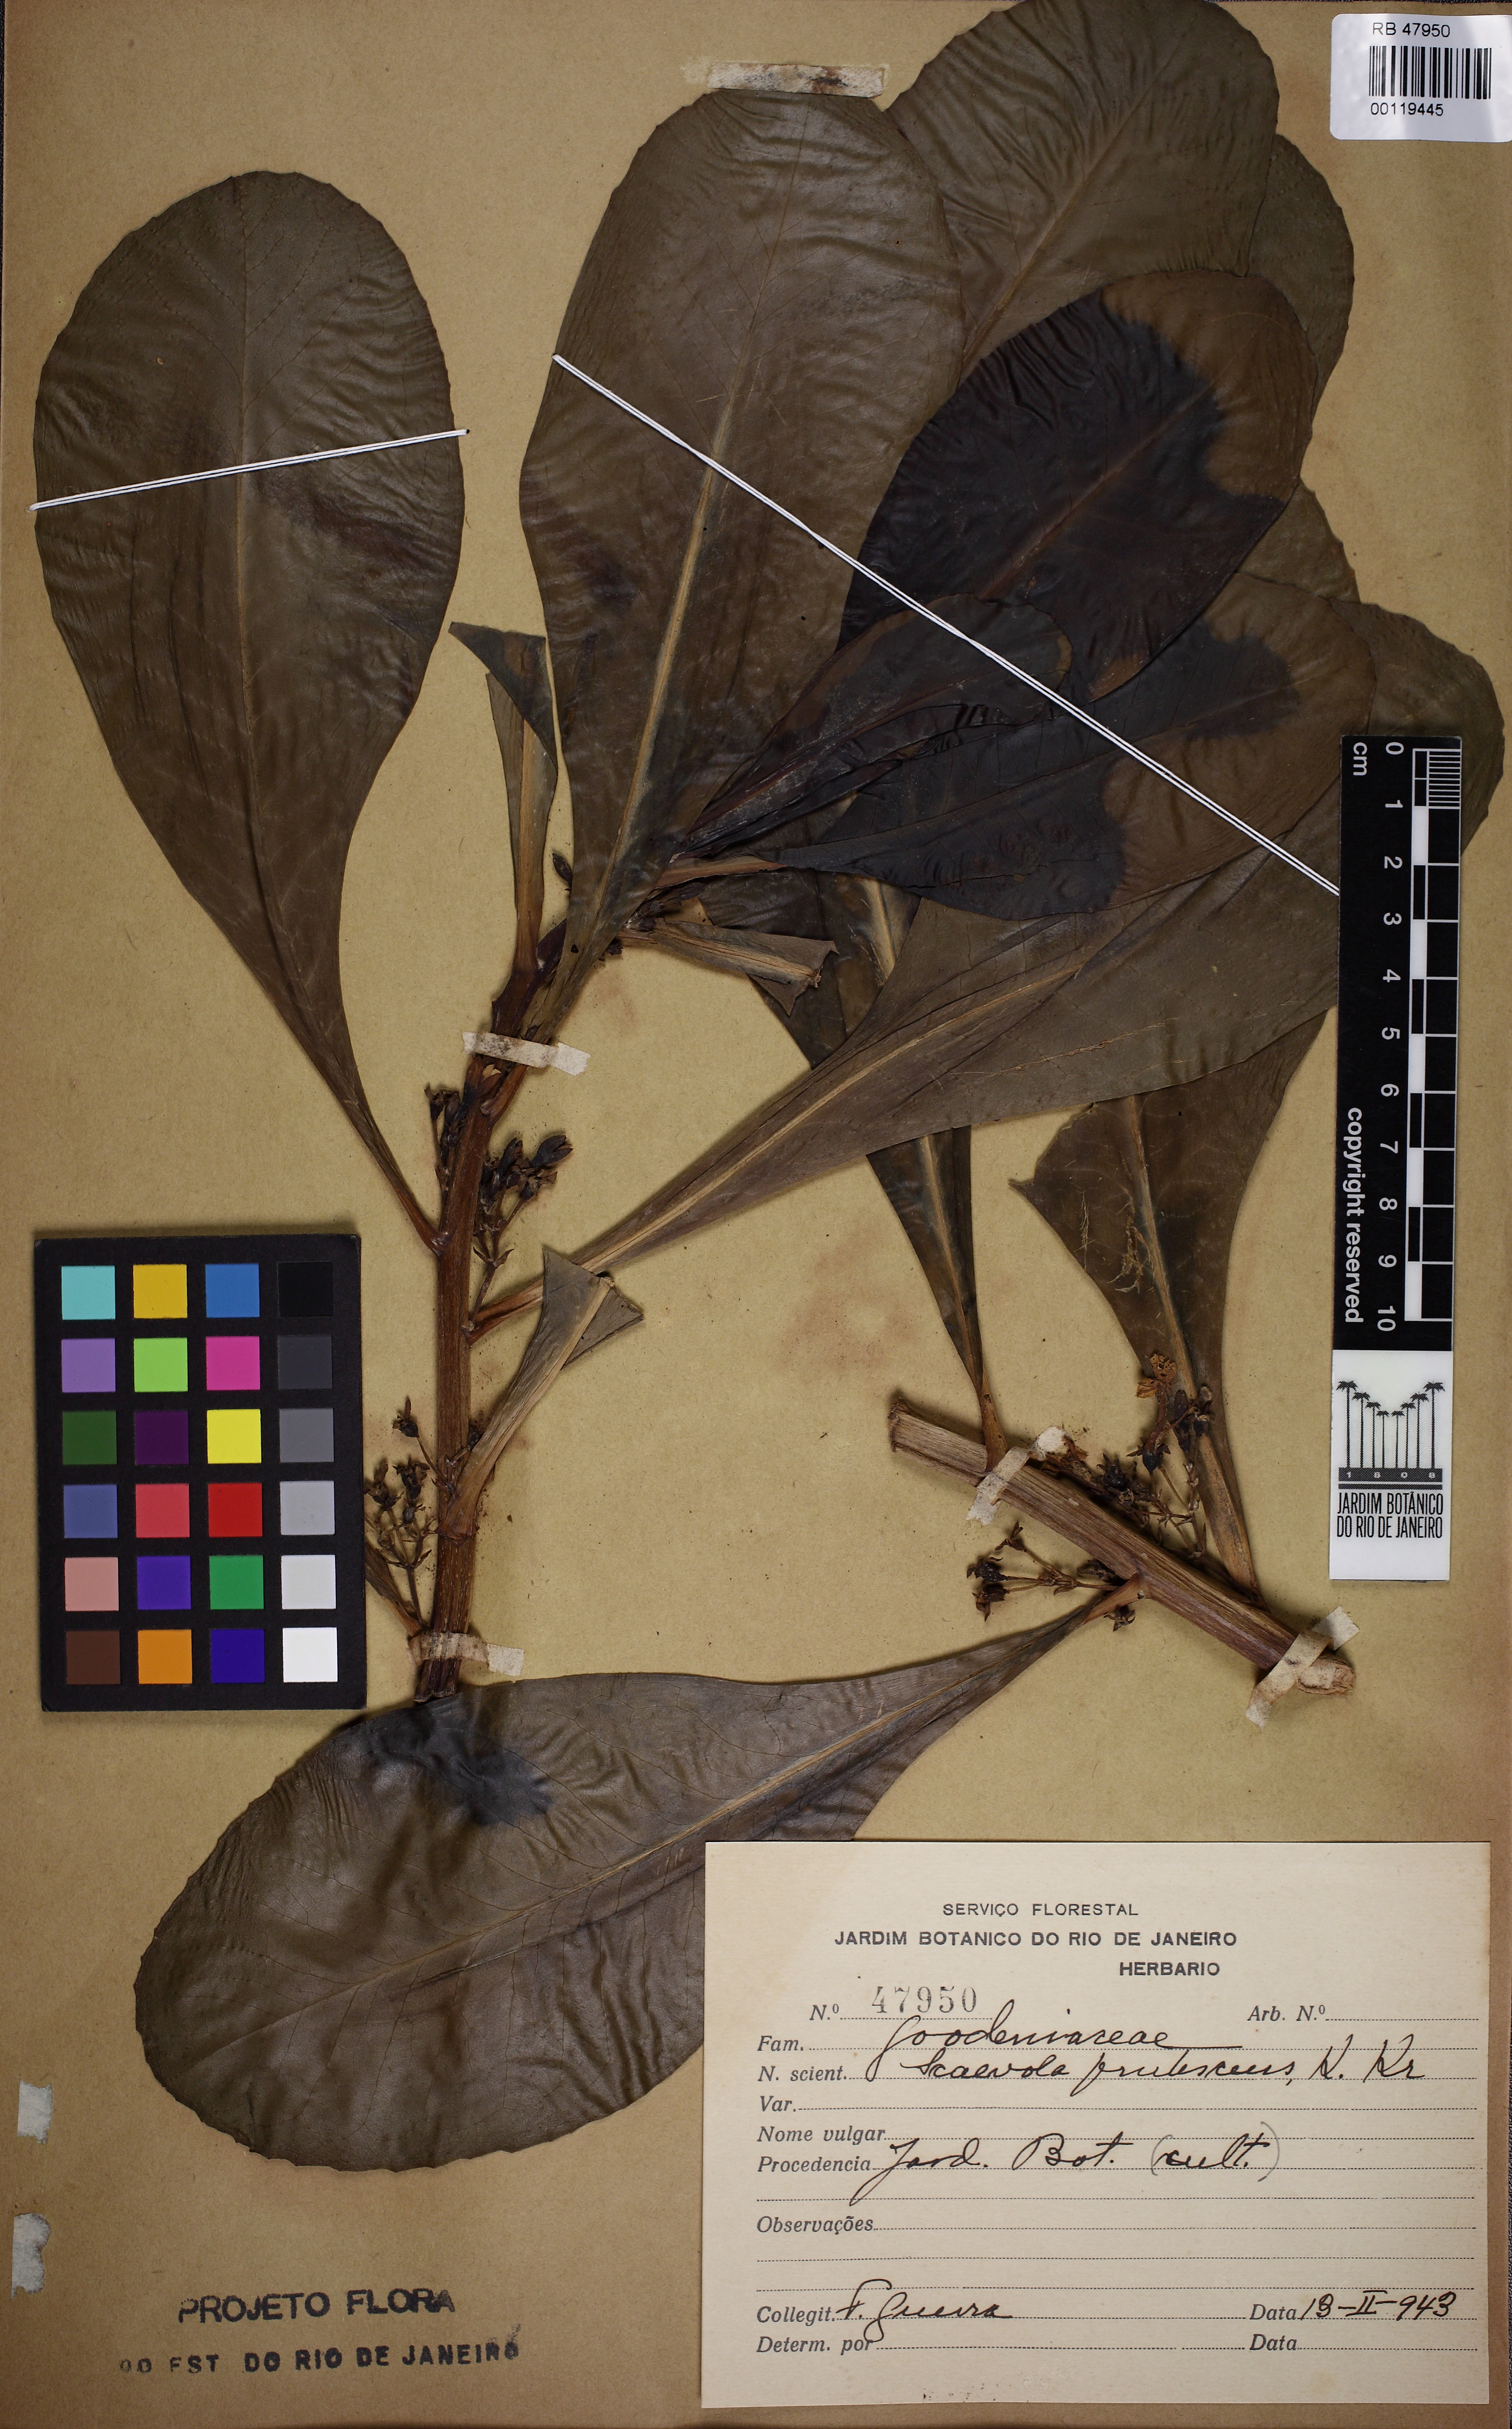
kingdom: Plantae
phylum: Tracheophyta
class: Magnoliopsida
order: Asterales
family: Goodeniaceae
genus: Scaevola
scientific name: Scaevola taccada
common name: Sea lettucetree
